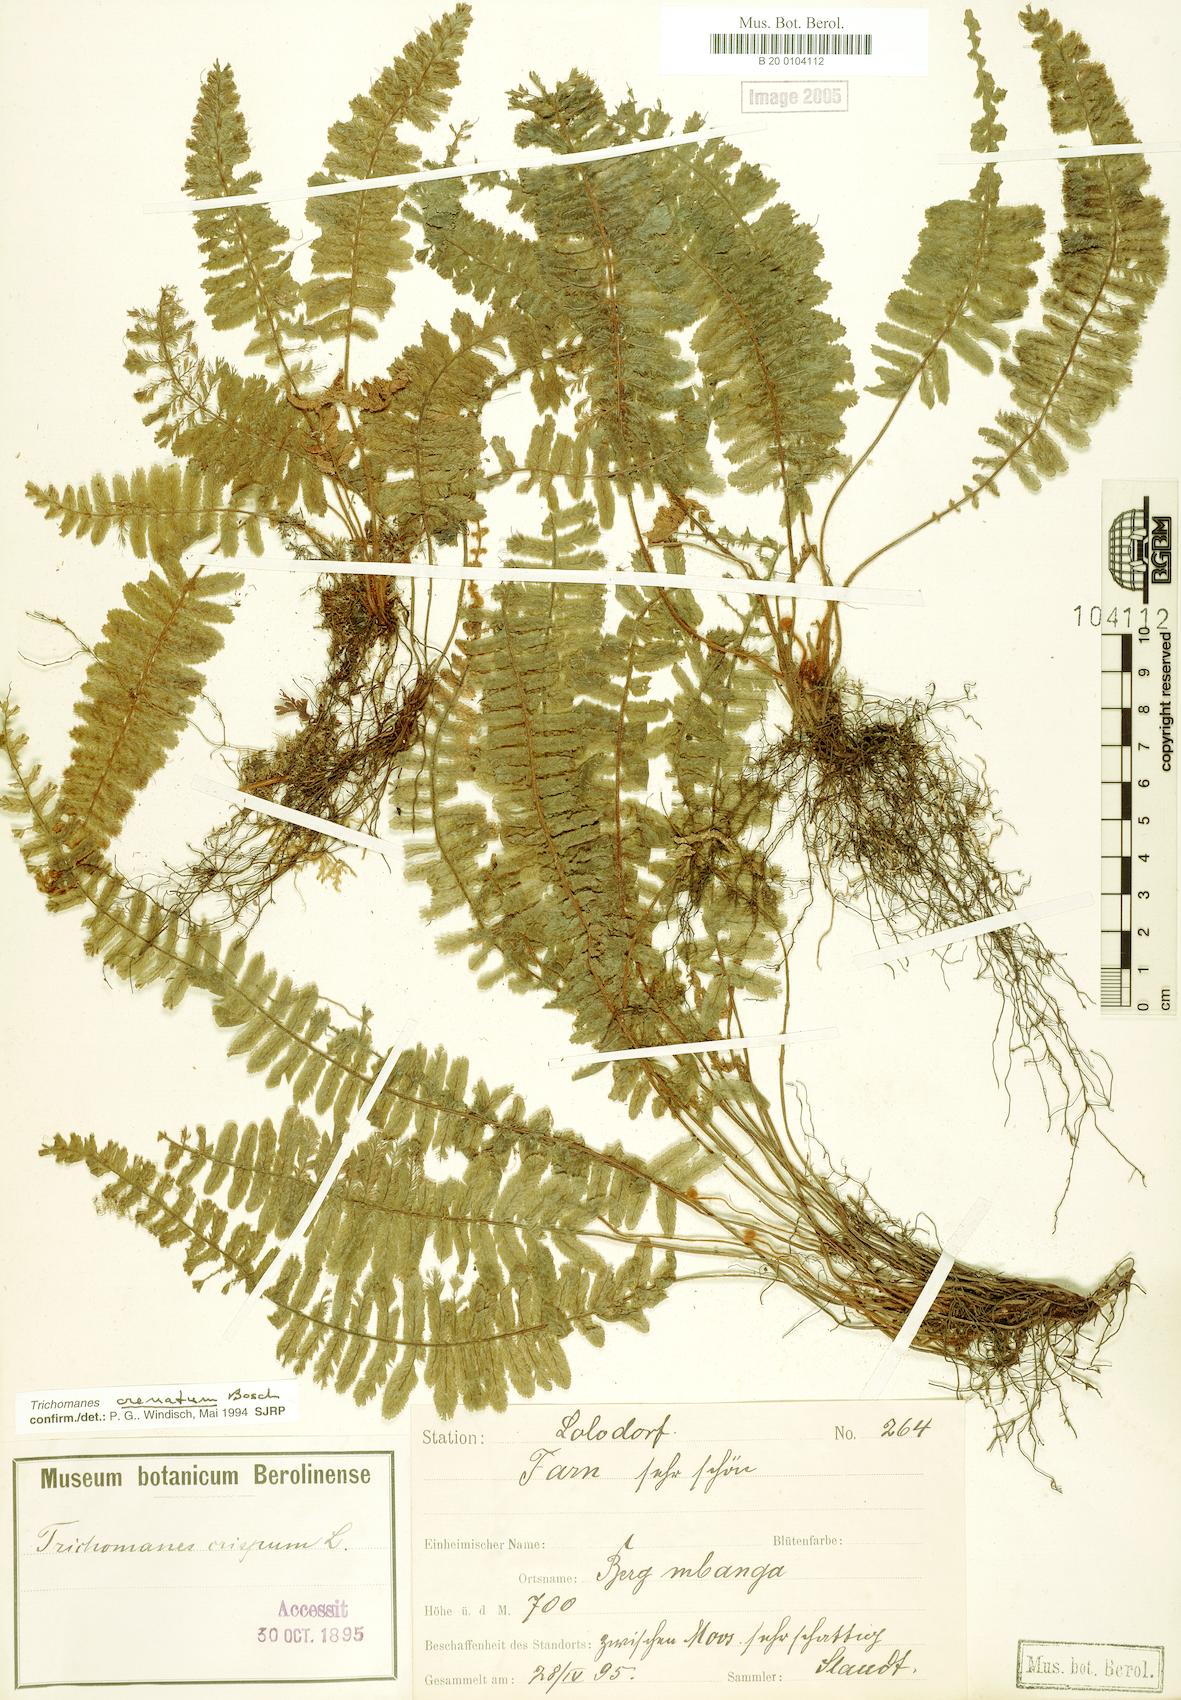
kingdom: Plantae
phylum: Tracheophyta
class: Polypodiopsida
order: Hymenophyllales
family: Hymenophyllaceae
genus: Trichomanes
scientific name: Trichomanes crispiforme
